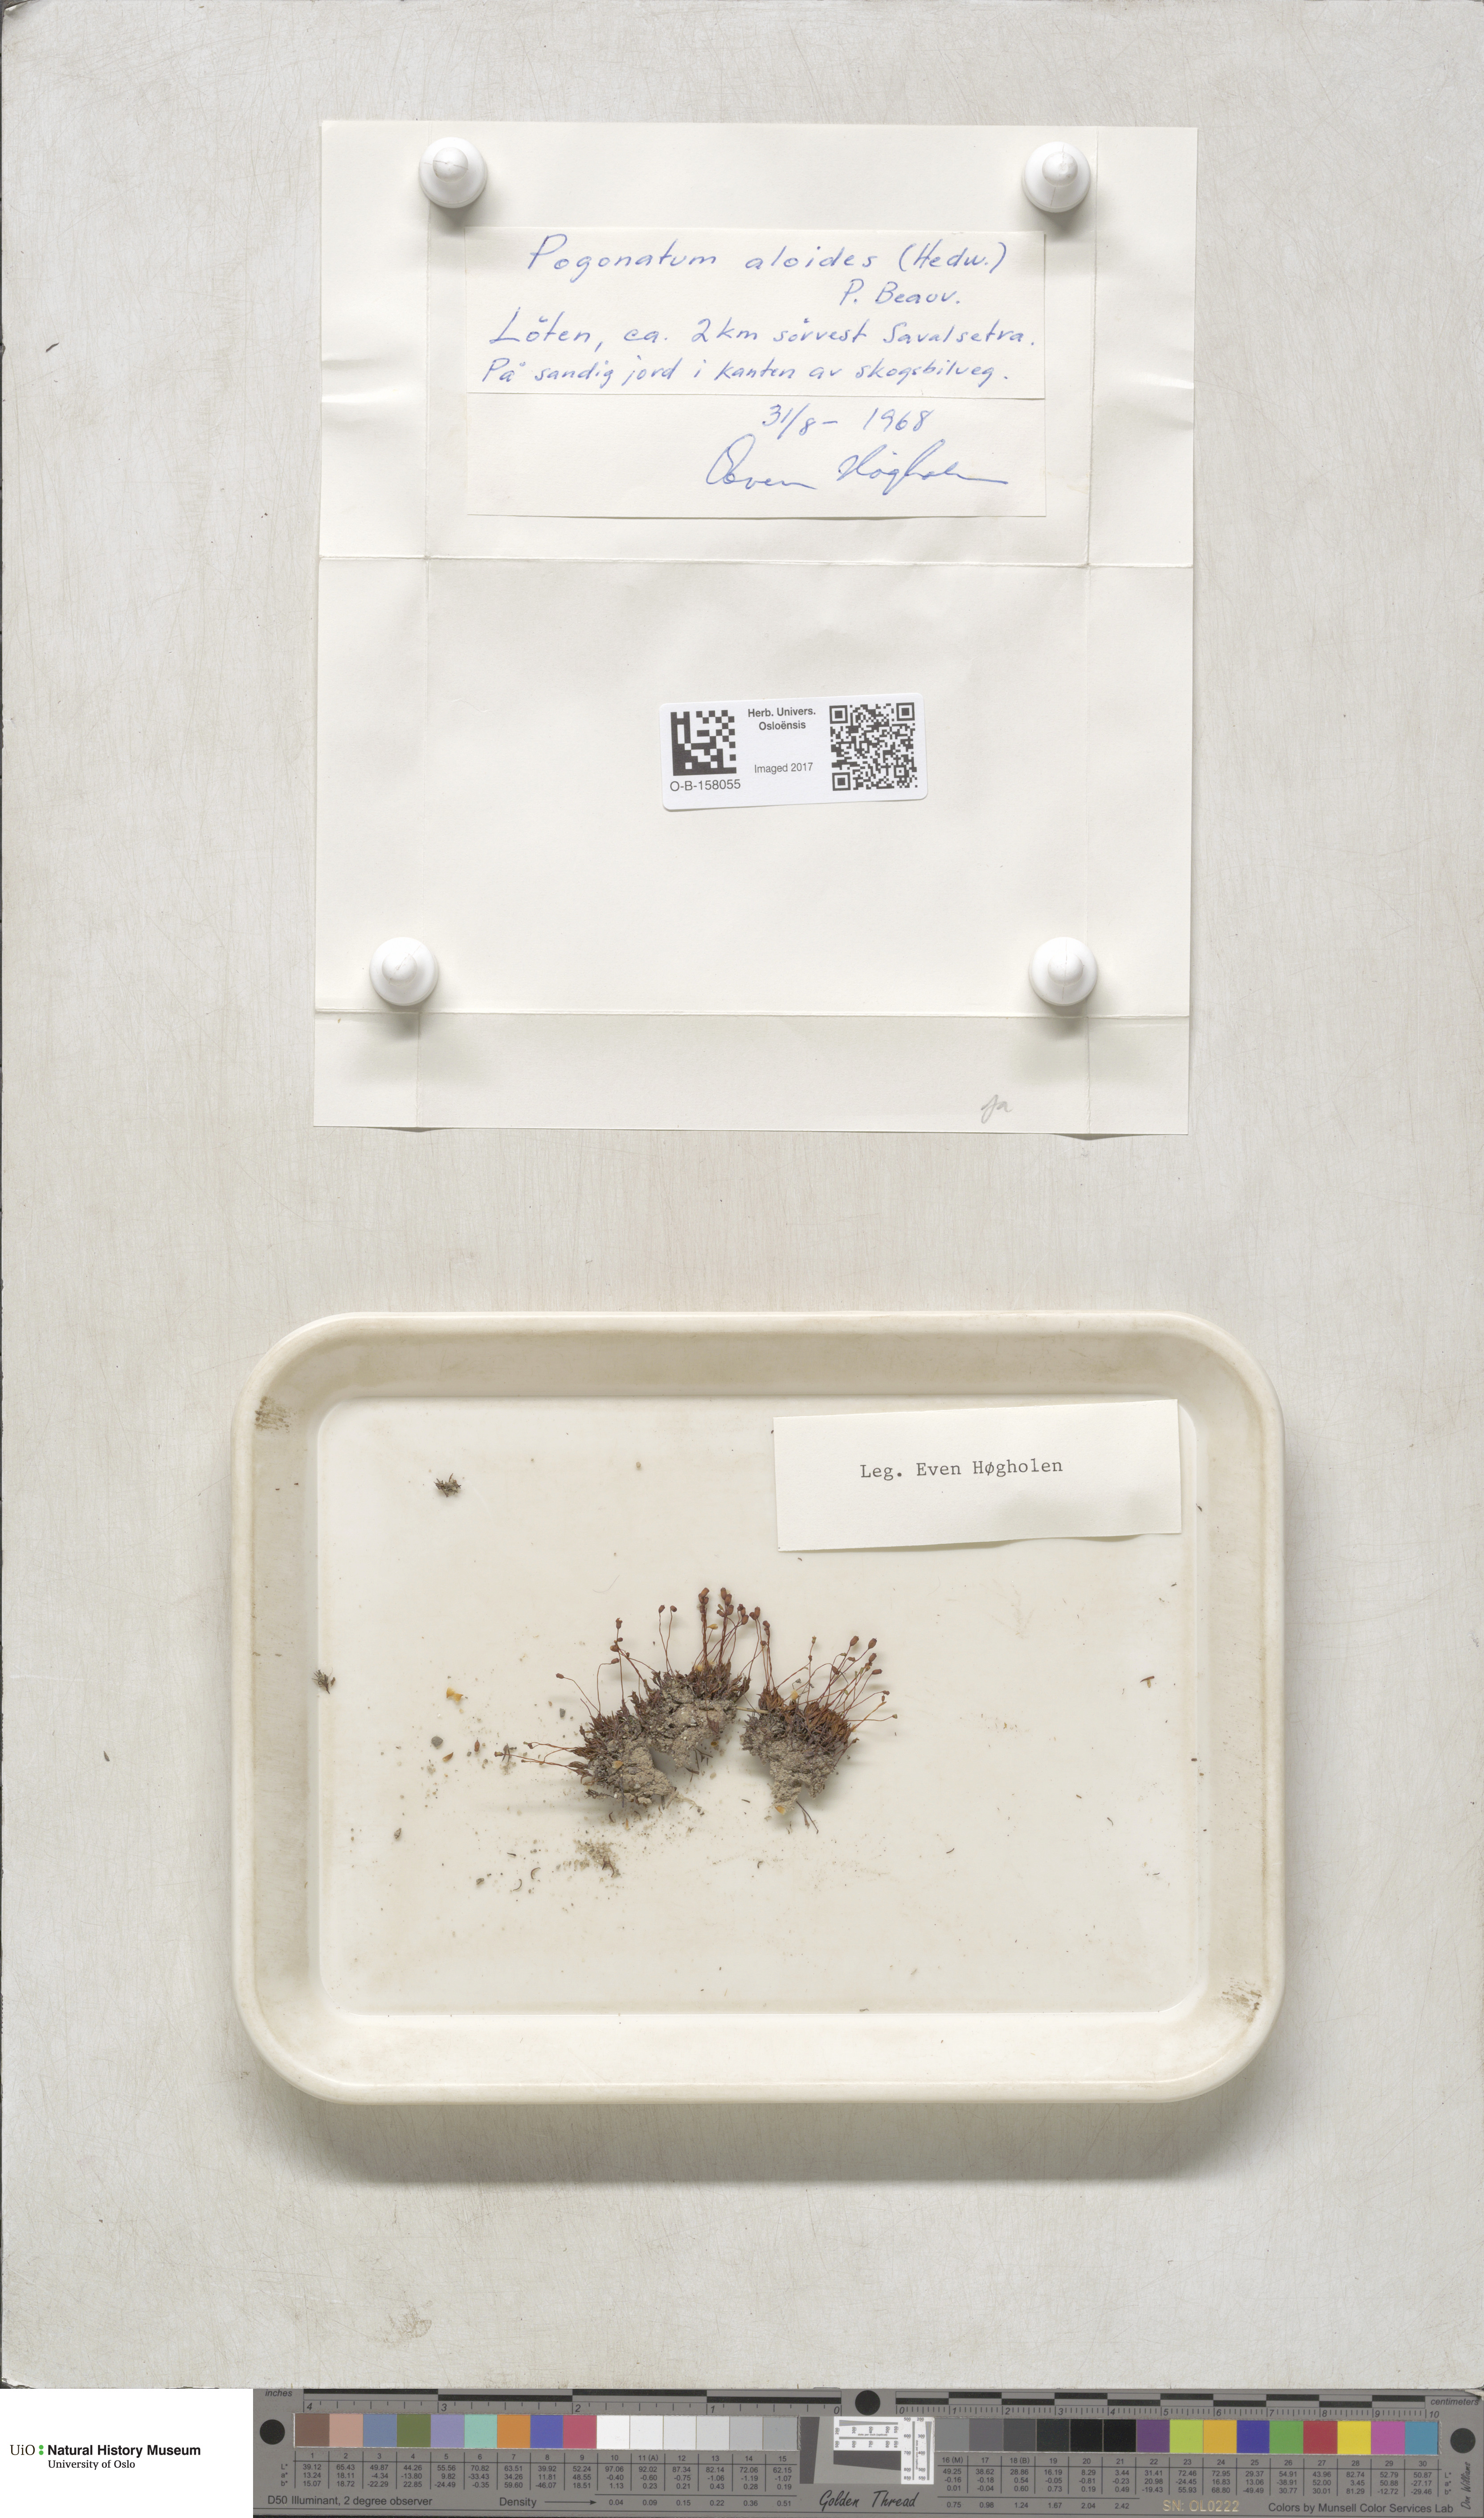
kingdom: Plantae
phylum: Bryophyta
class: Polytrichopsida
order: Polytrichales
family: Polytrichaceae
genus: Pogonatum
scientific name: Pogonatum aloides
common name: Aloe haircap
